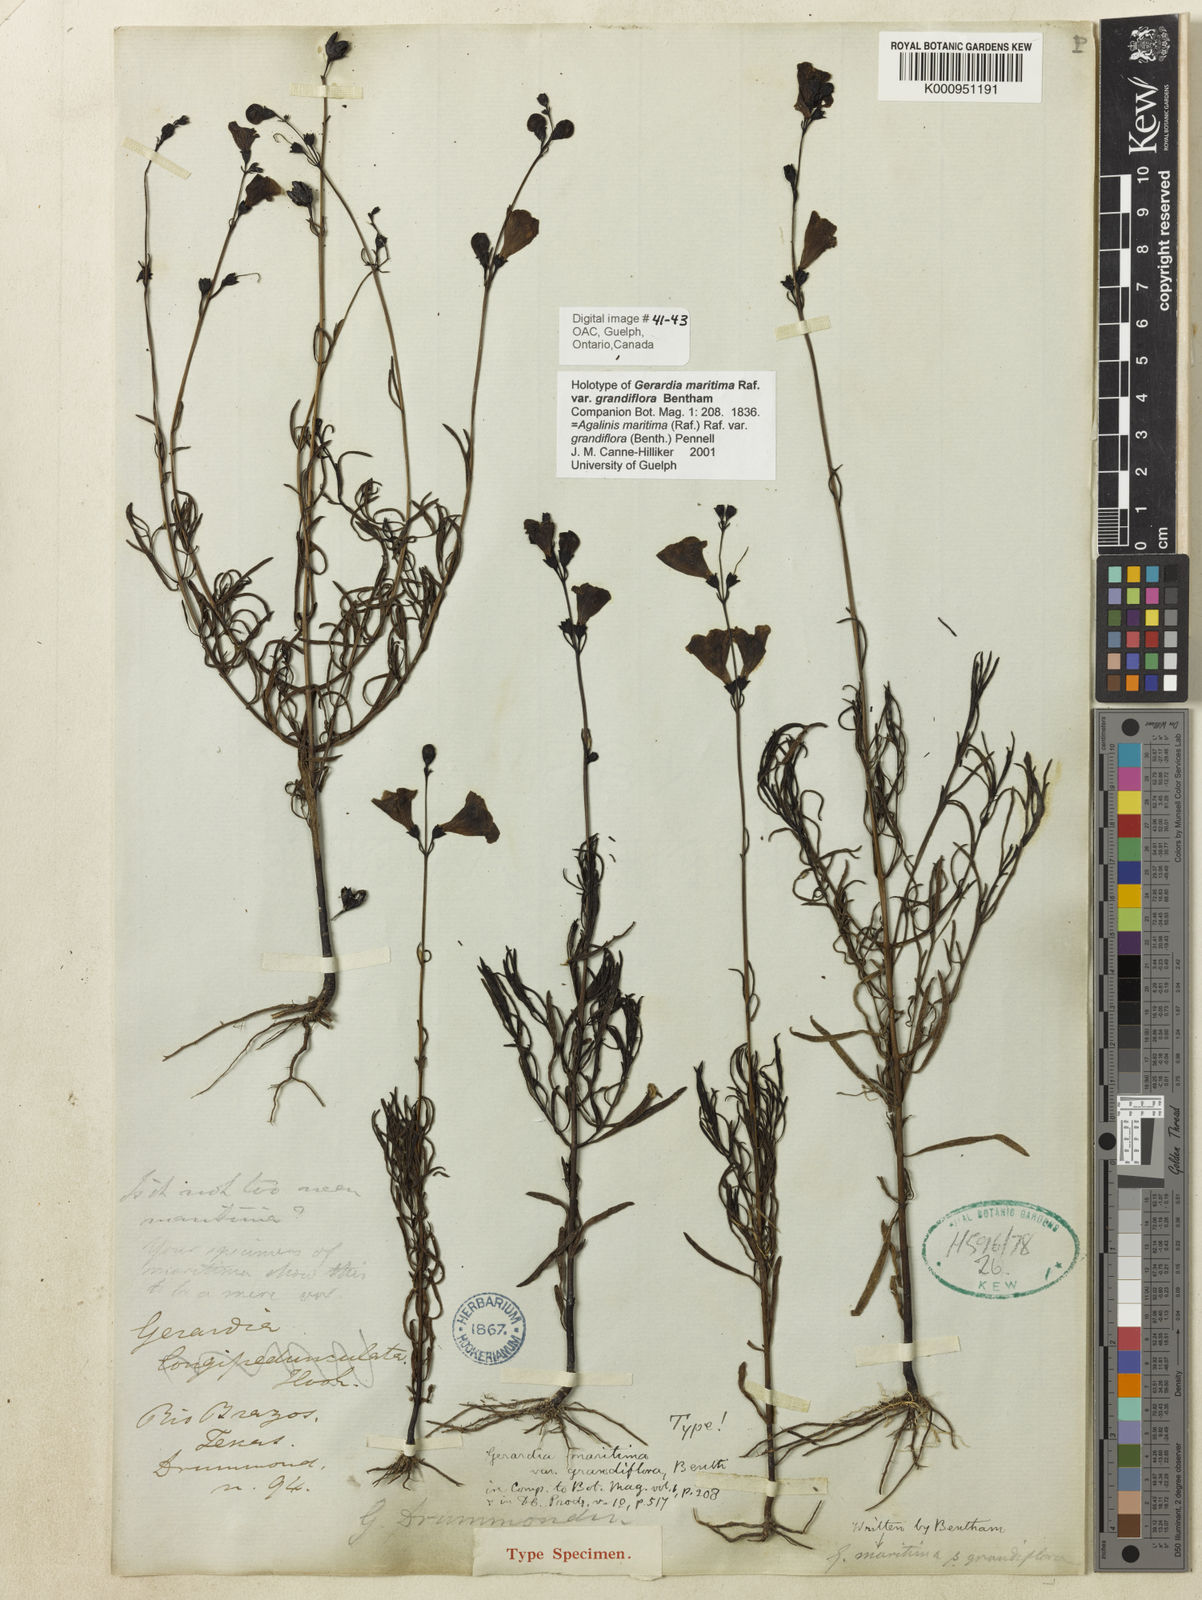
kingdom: Plantae
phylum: Tracheophyta
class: Magnoliopsida
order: Lamiales
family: Orobanchaceae
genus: Agalinis
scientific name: Agalinis maritima
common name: Saltmarsh agalinis
